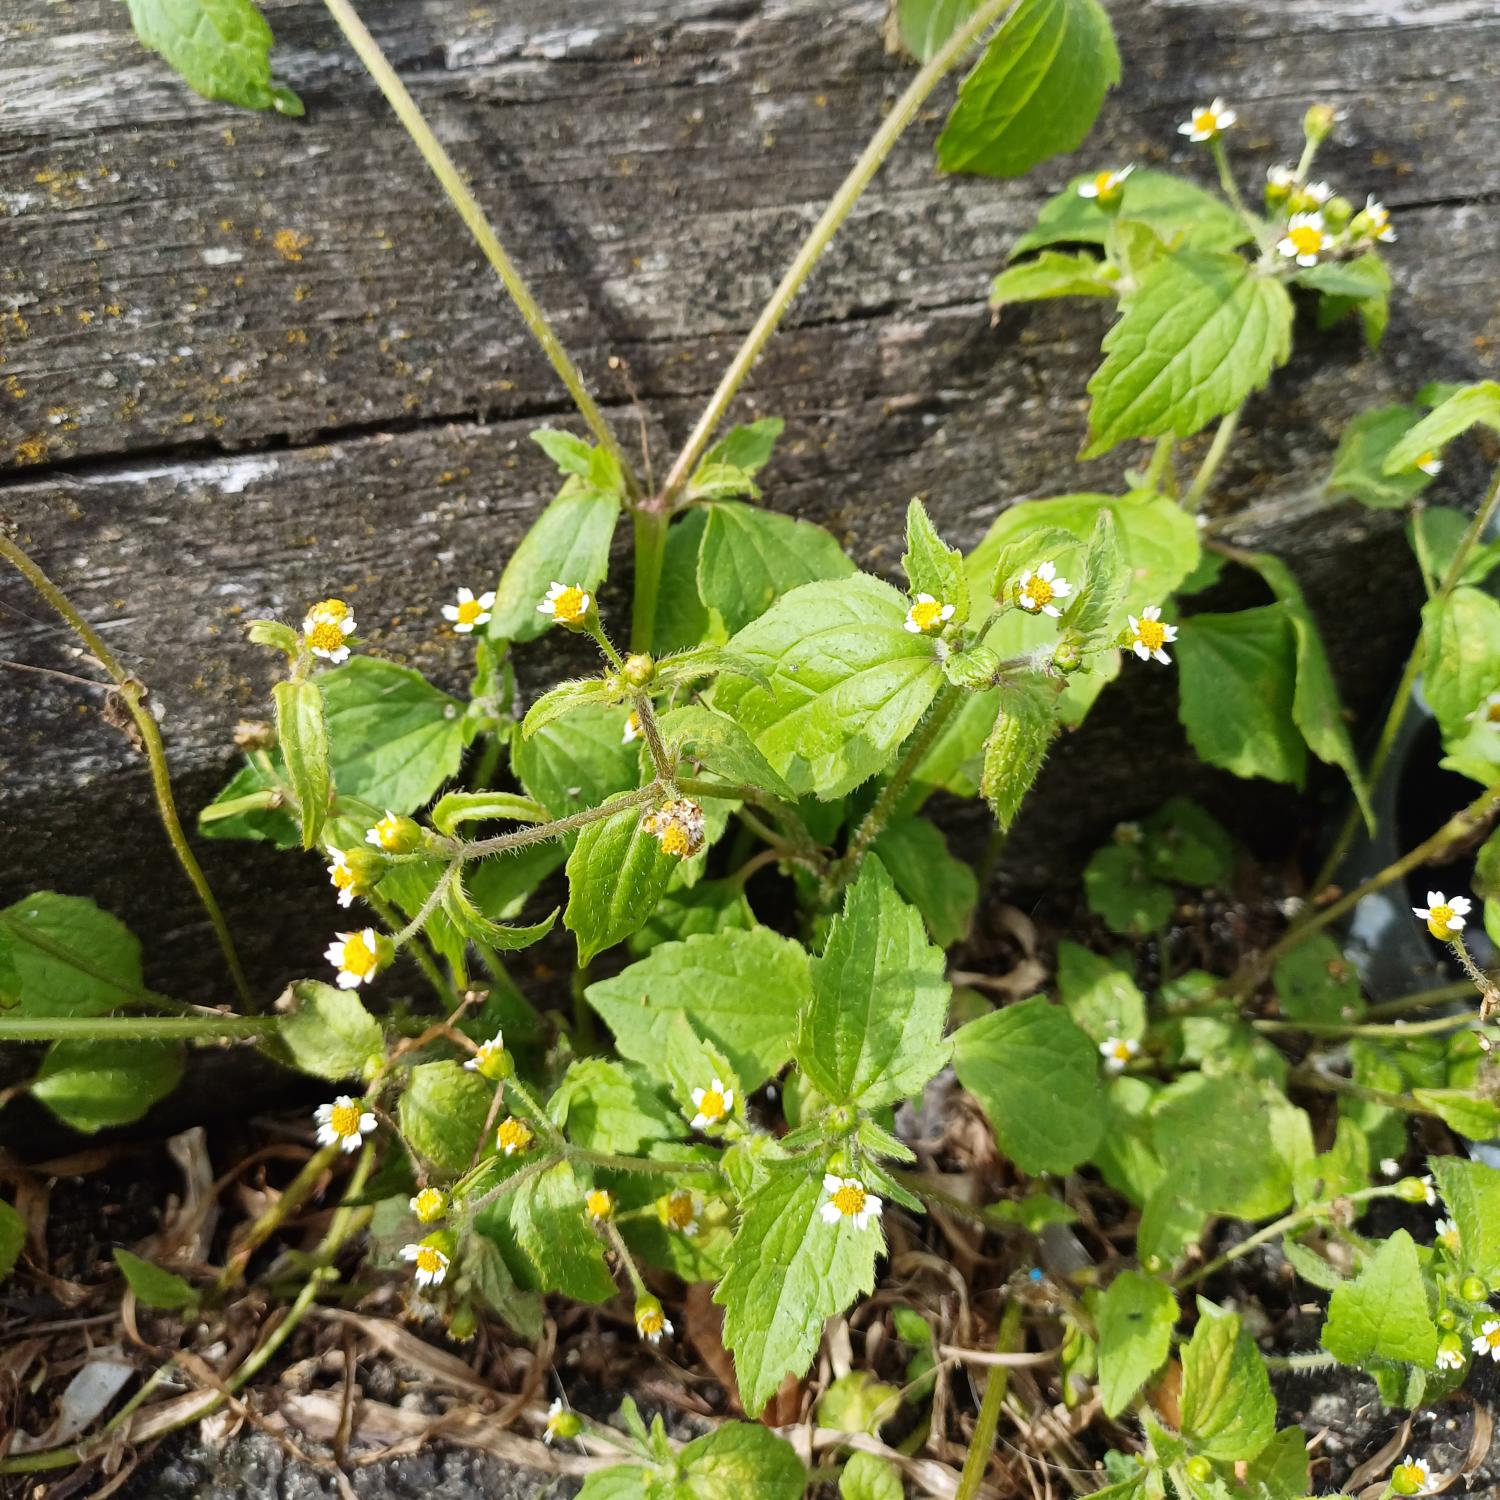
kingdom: Plantae
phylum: Tracheophyta
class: Magnoliopsida
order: Asterales
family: Asteraceae
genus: Galinsoga
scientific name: Galinsoga quadriradiata
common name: Kirtel-kortstråle
